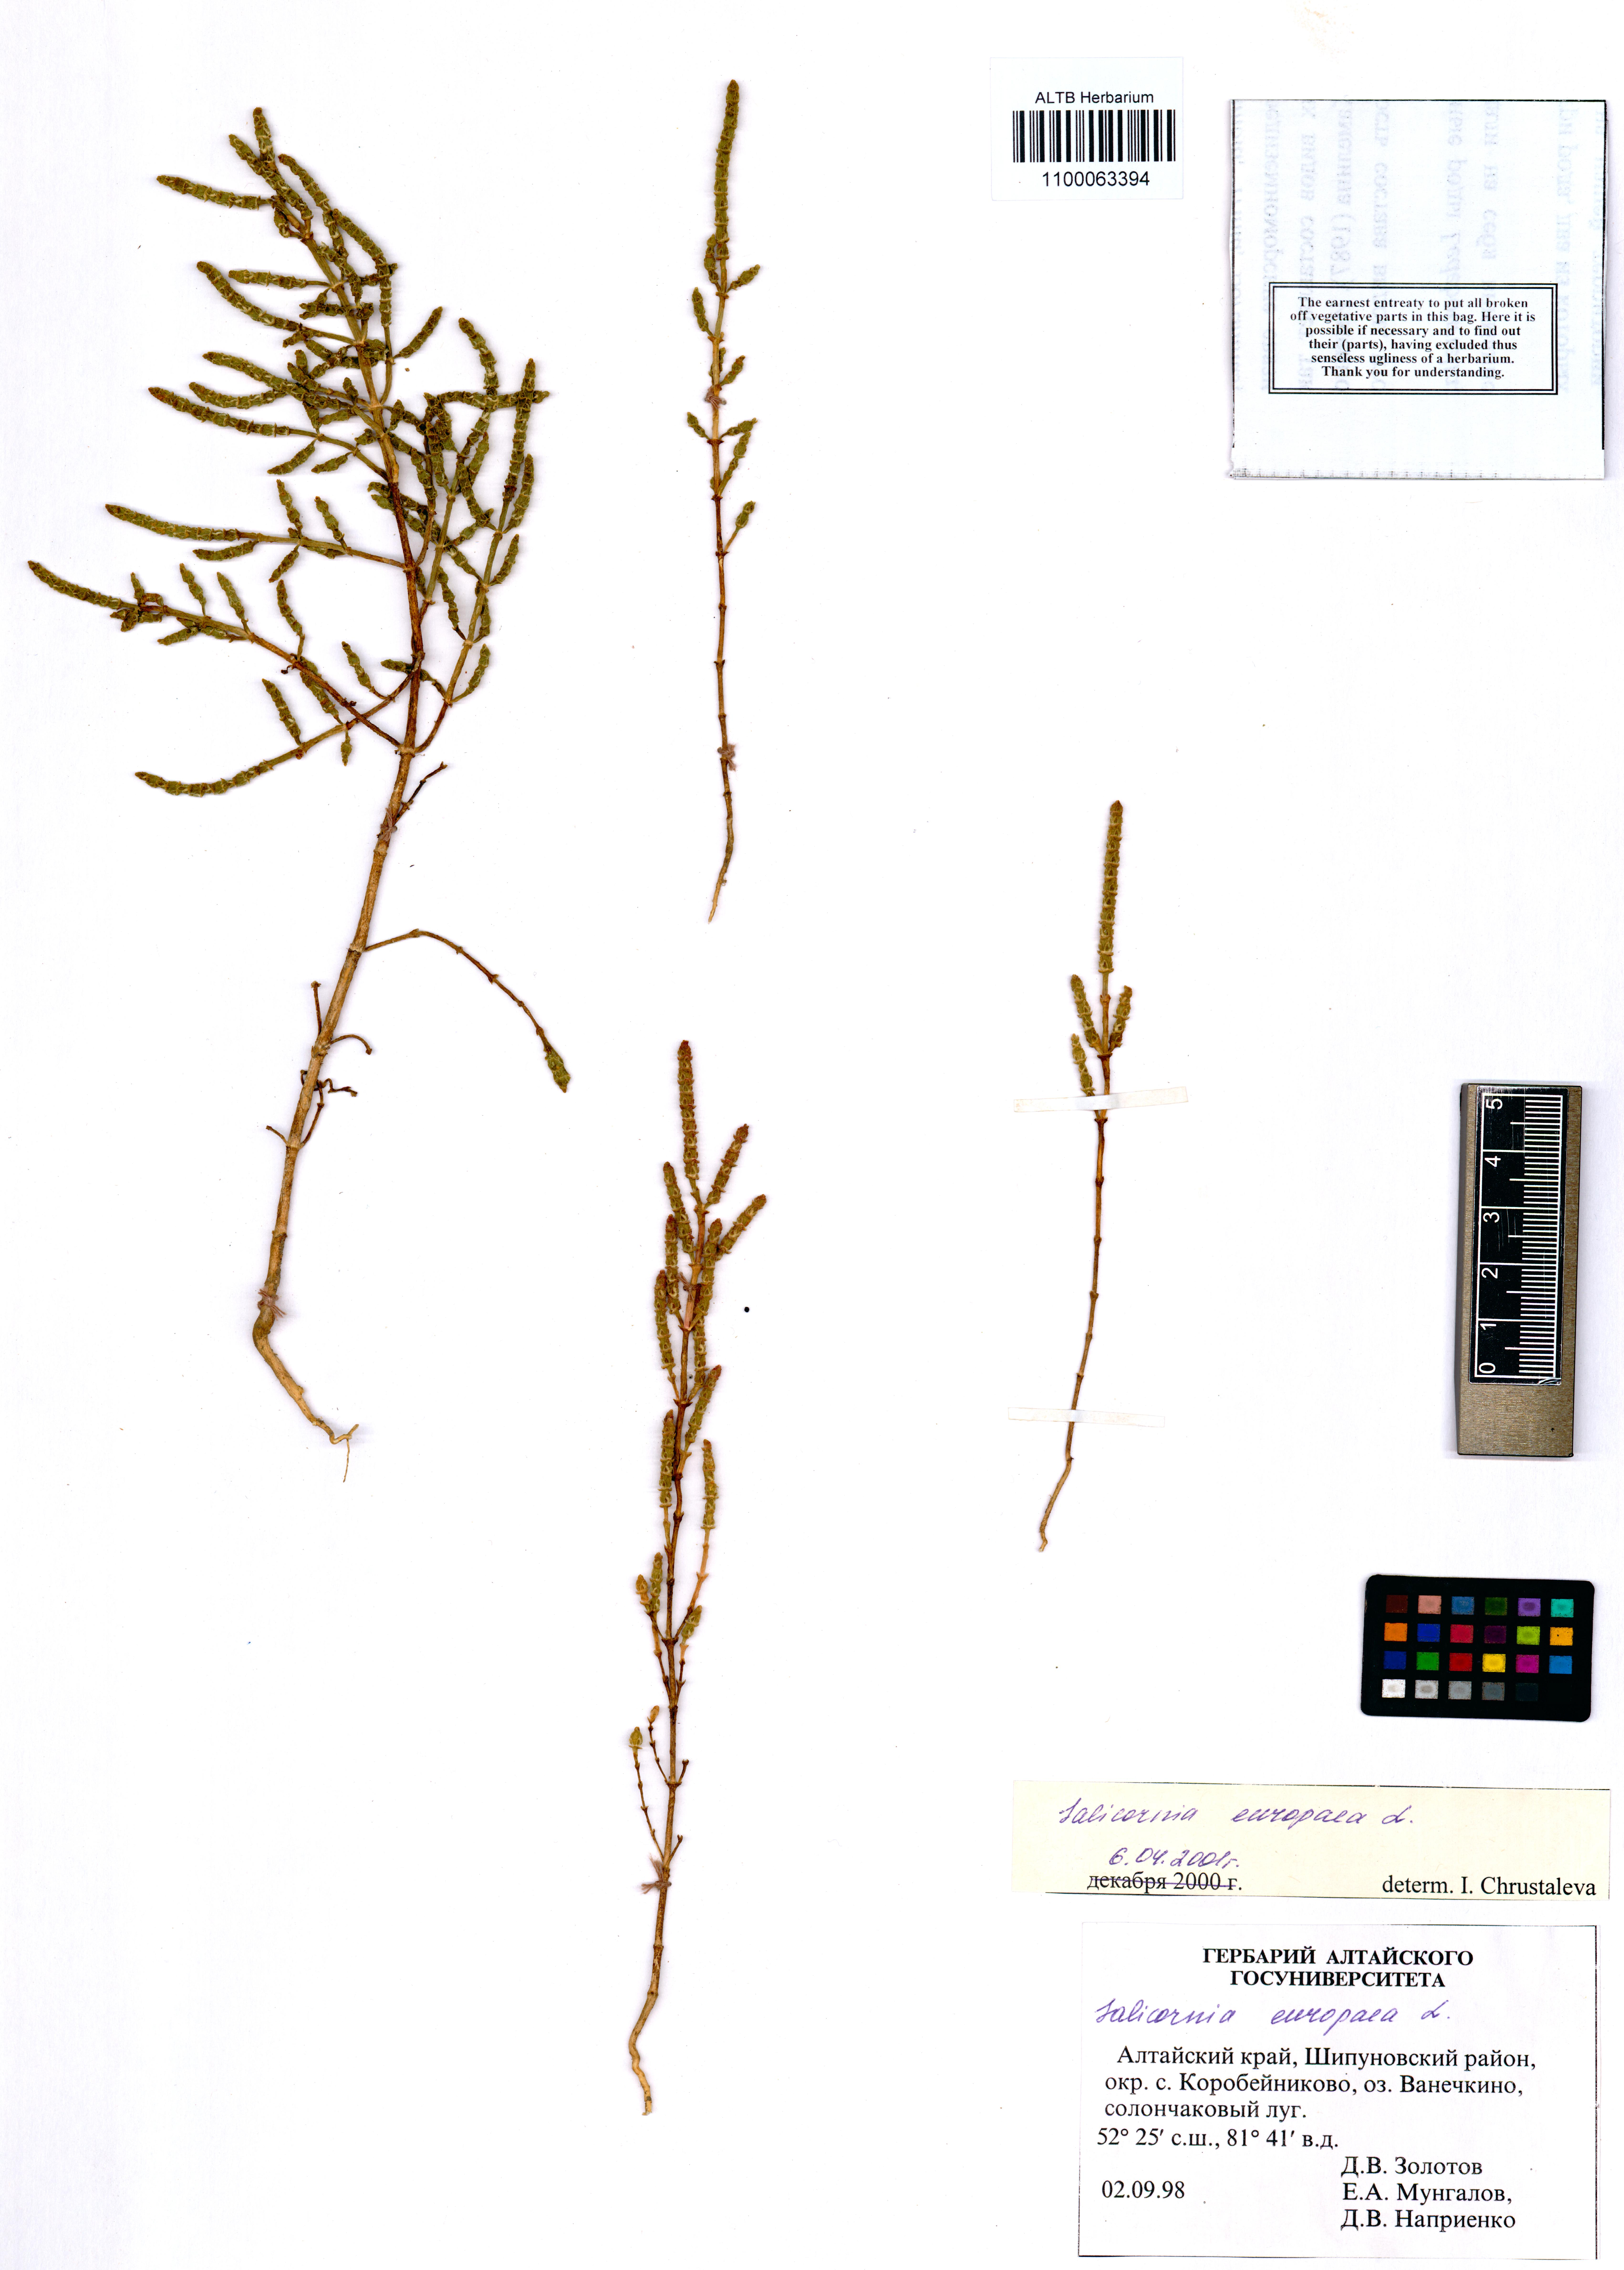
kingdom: Plantae
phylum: Tracheophyta
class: Magnoliopsida
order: Caryophyllales
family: Amaranthaceae
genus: Salicornia
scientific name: Salicornia europaea
